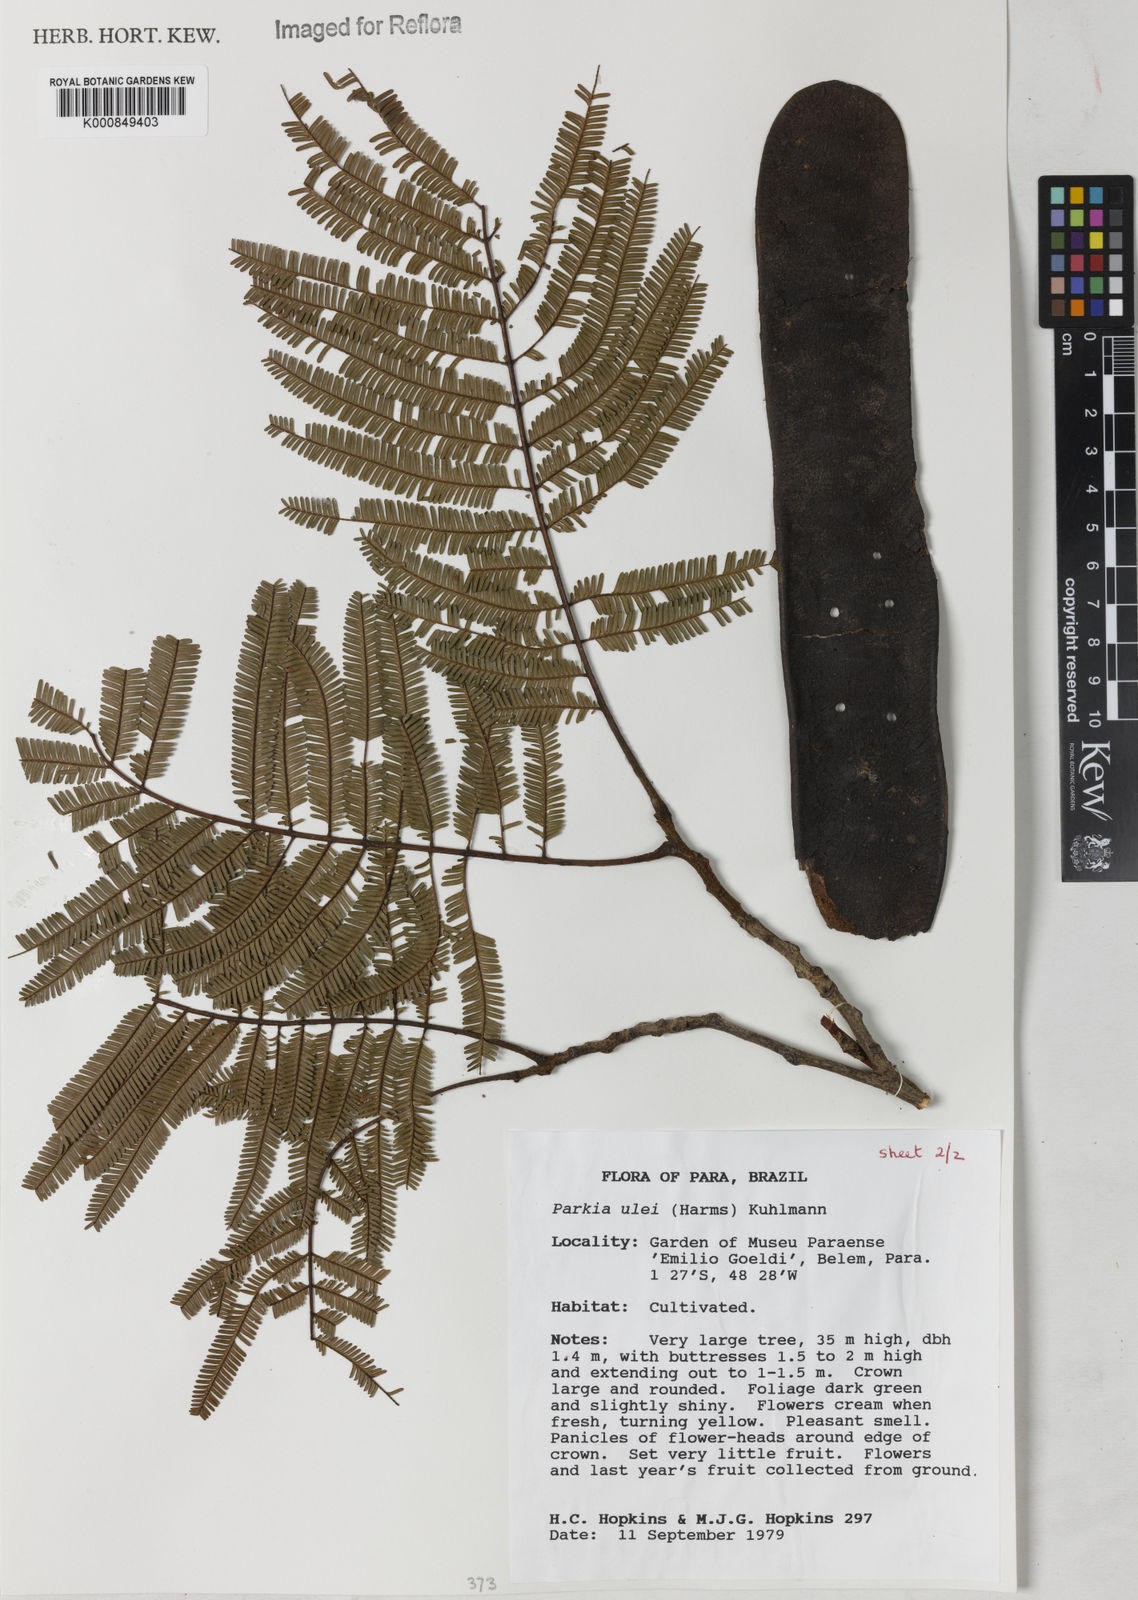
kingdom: Plantae
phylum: Tracheophyta
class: Magnoliopsida
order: Fabales
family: Fabaceae
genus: Parkia
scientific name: Parkia ulei
